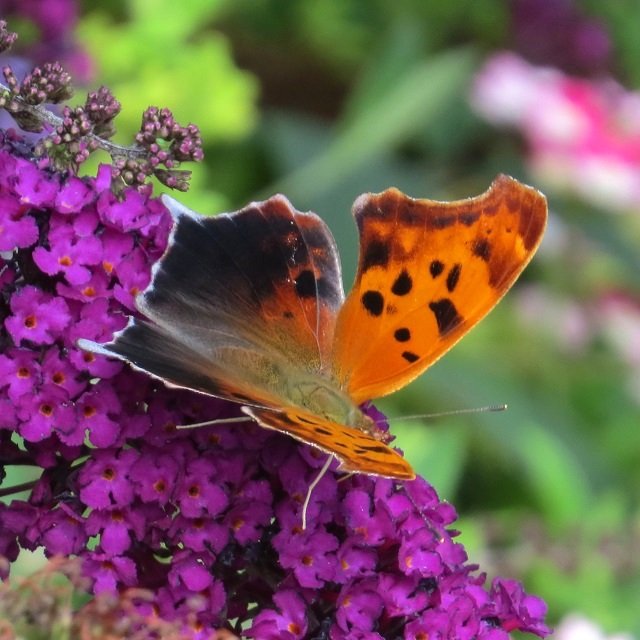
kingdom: Animalia
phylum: Arthropoda
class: Insecta
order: Lepidoptera
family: Nymphalidae
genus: Polygonia
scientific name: Polygonia interrogationis
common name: Question Mark
